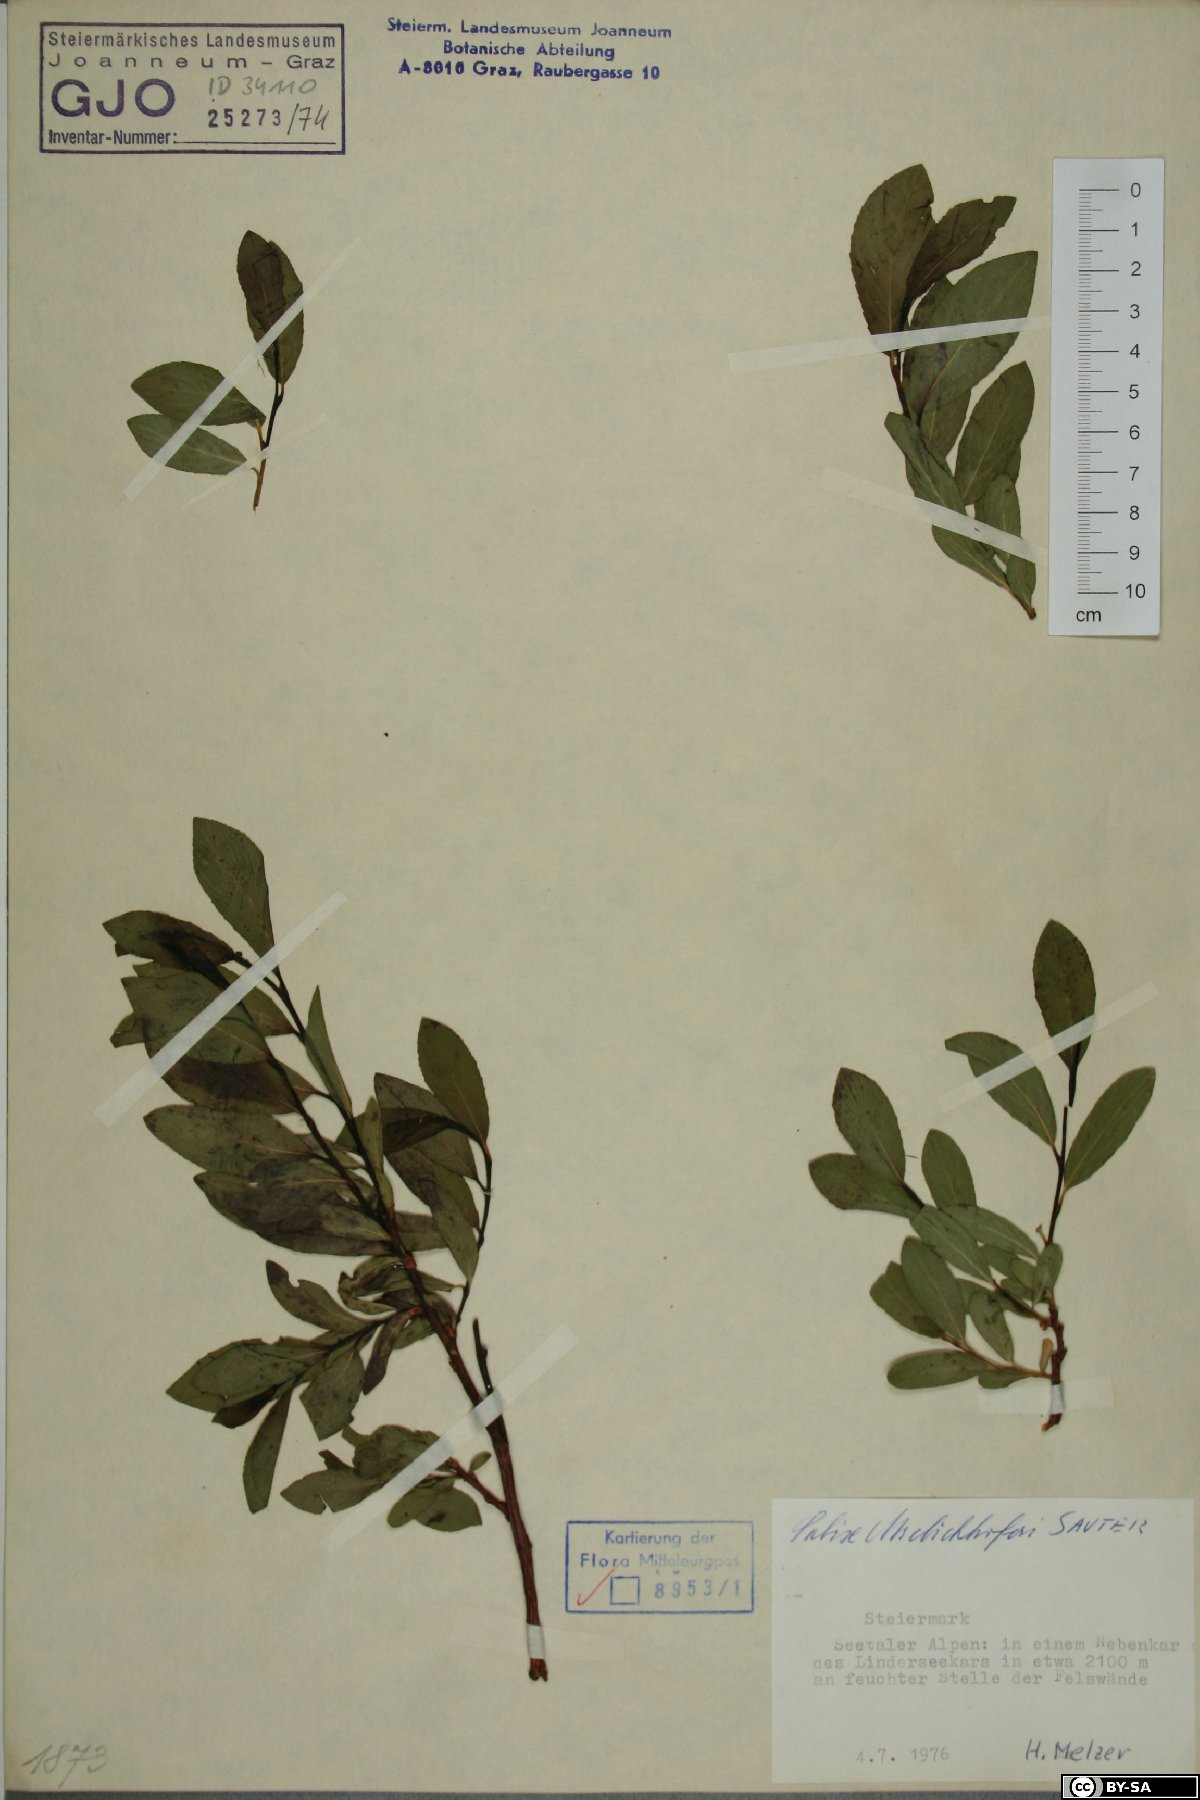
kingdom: Plantae
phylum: Tracheophyta
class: Magnoliopsida
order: Malpighiales
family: Salicaceae
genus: Salix
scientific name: Salix mielichhoferi
